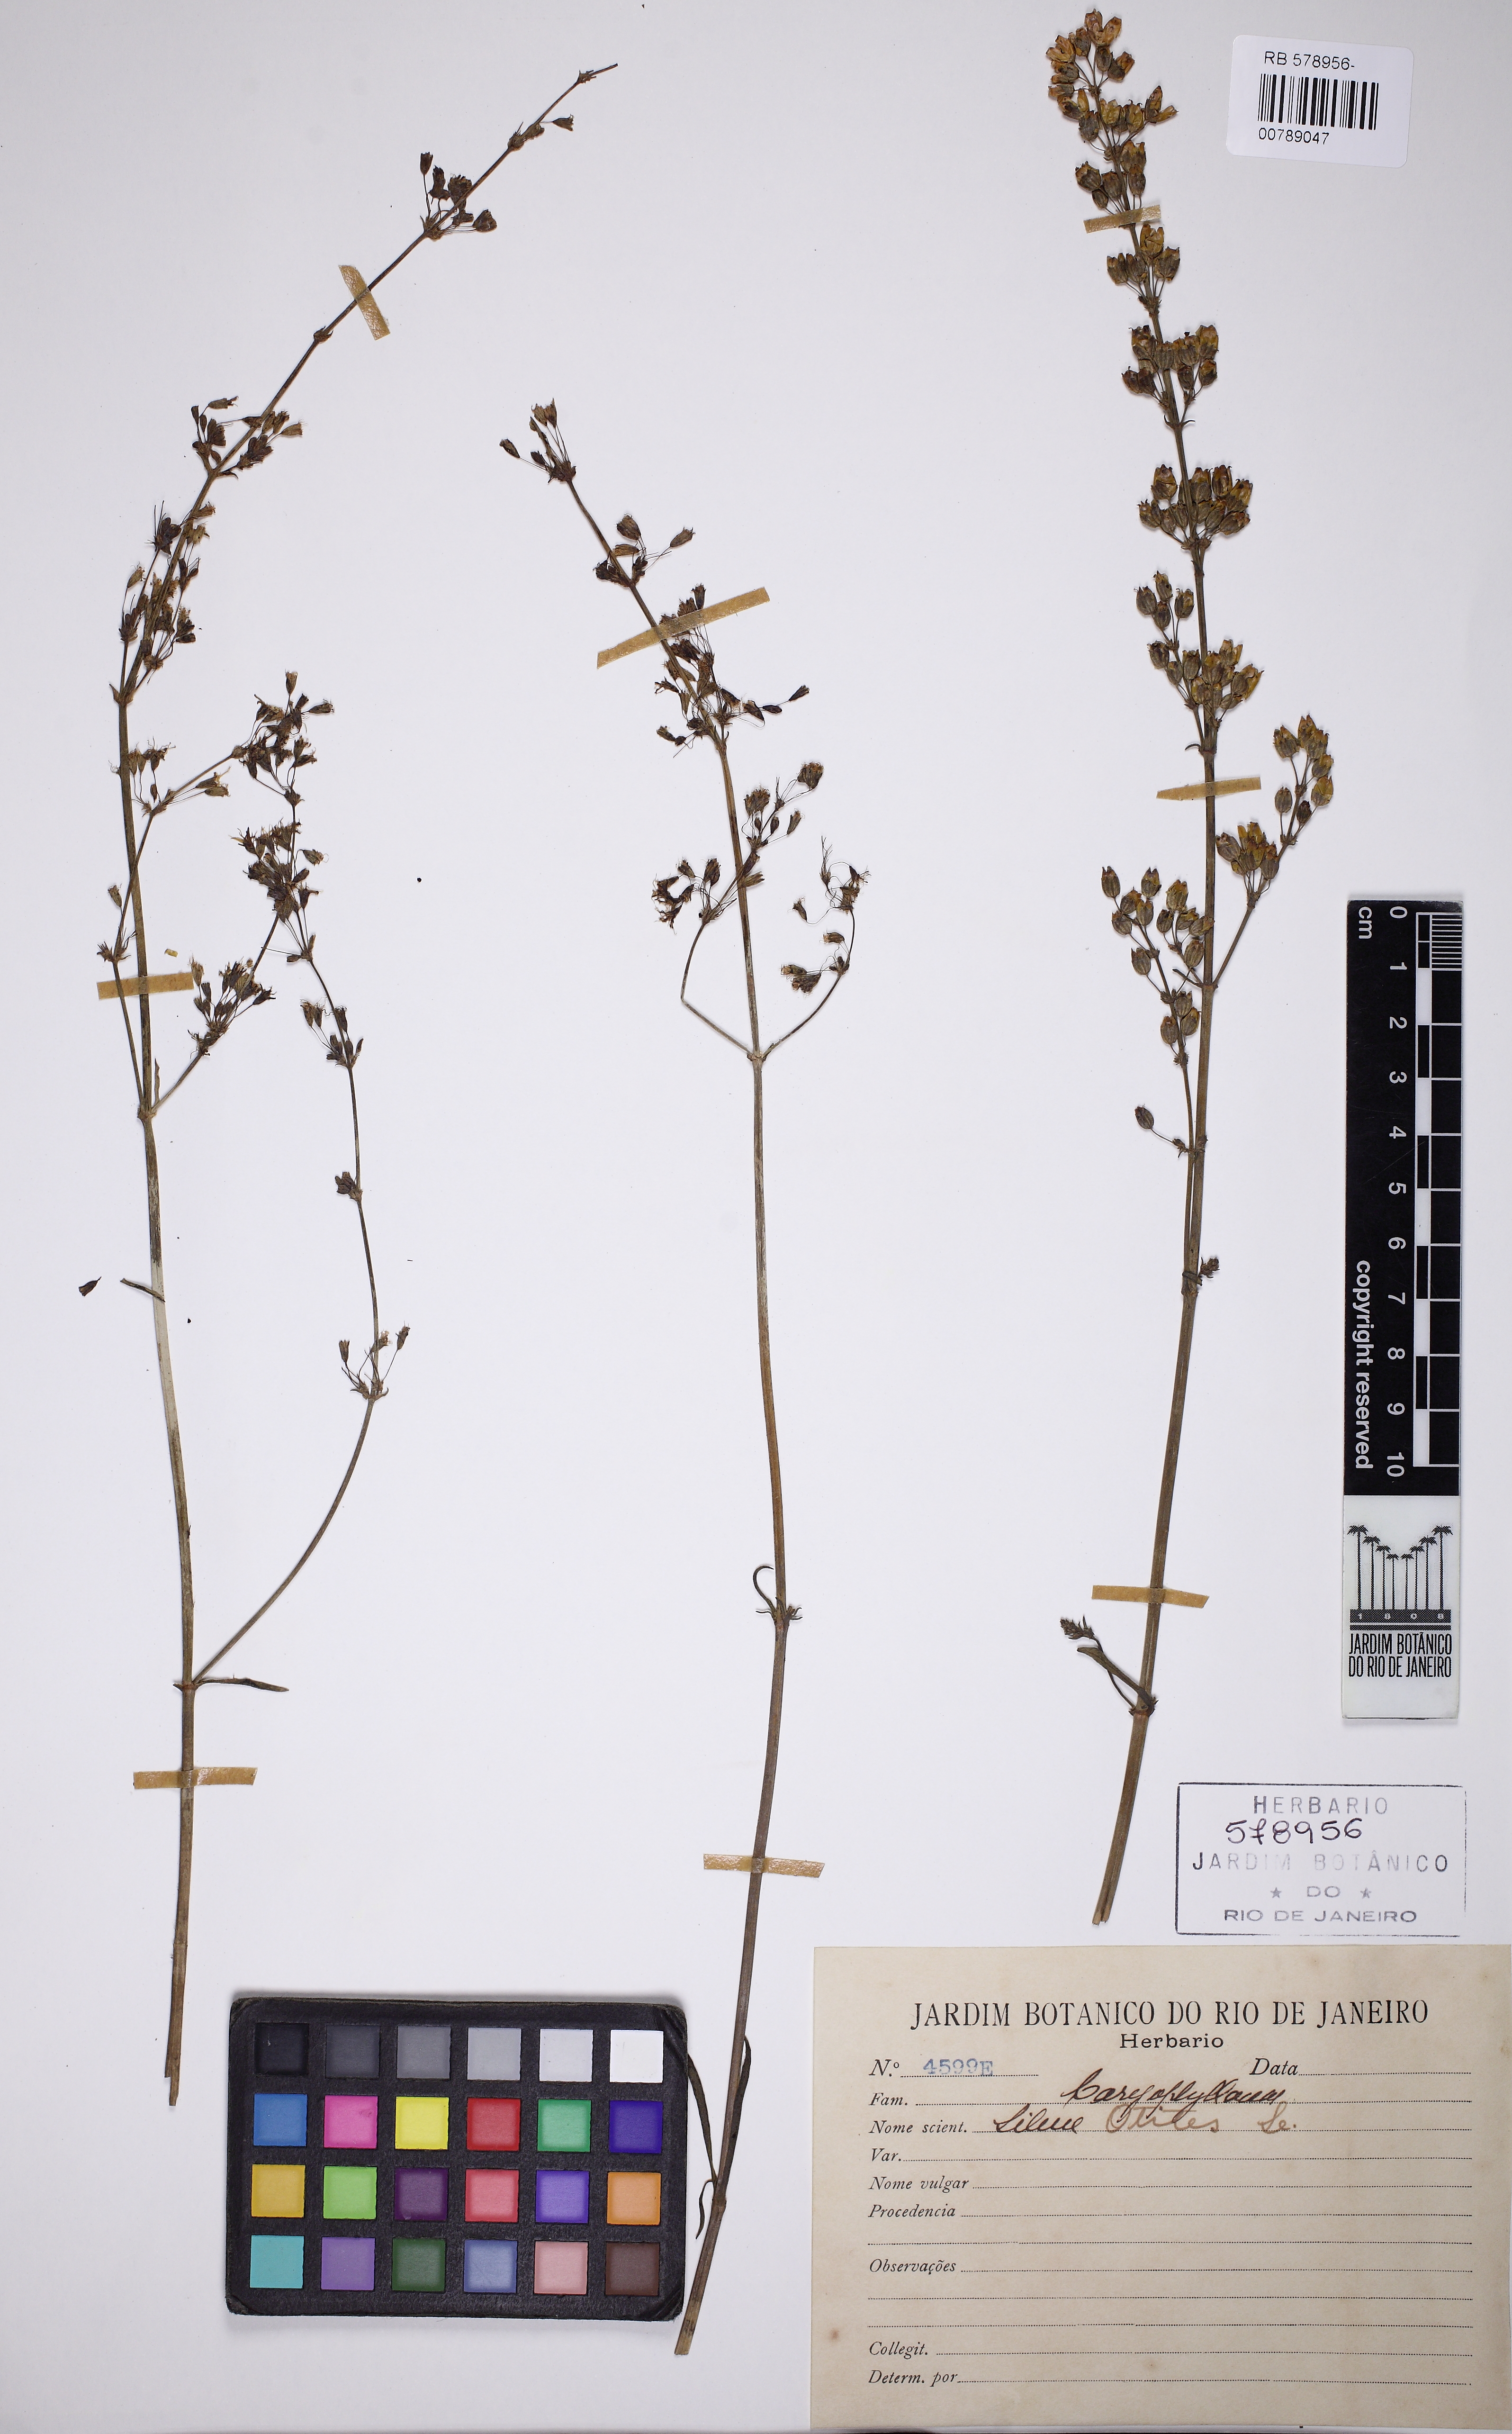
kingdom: Plantae
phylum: Tracheophyta
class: Magnoliopsida
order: Caryophyllales
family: Caryophyllaceae
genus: Silene
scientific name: Silene otites
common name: Spanish catchfly
